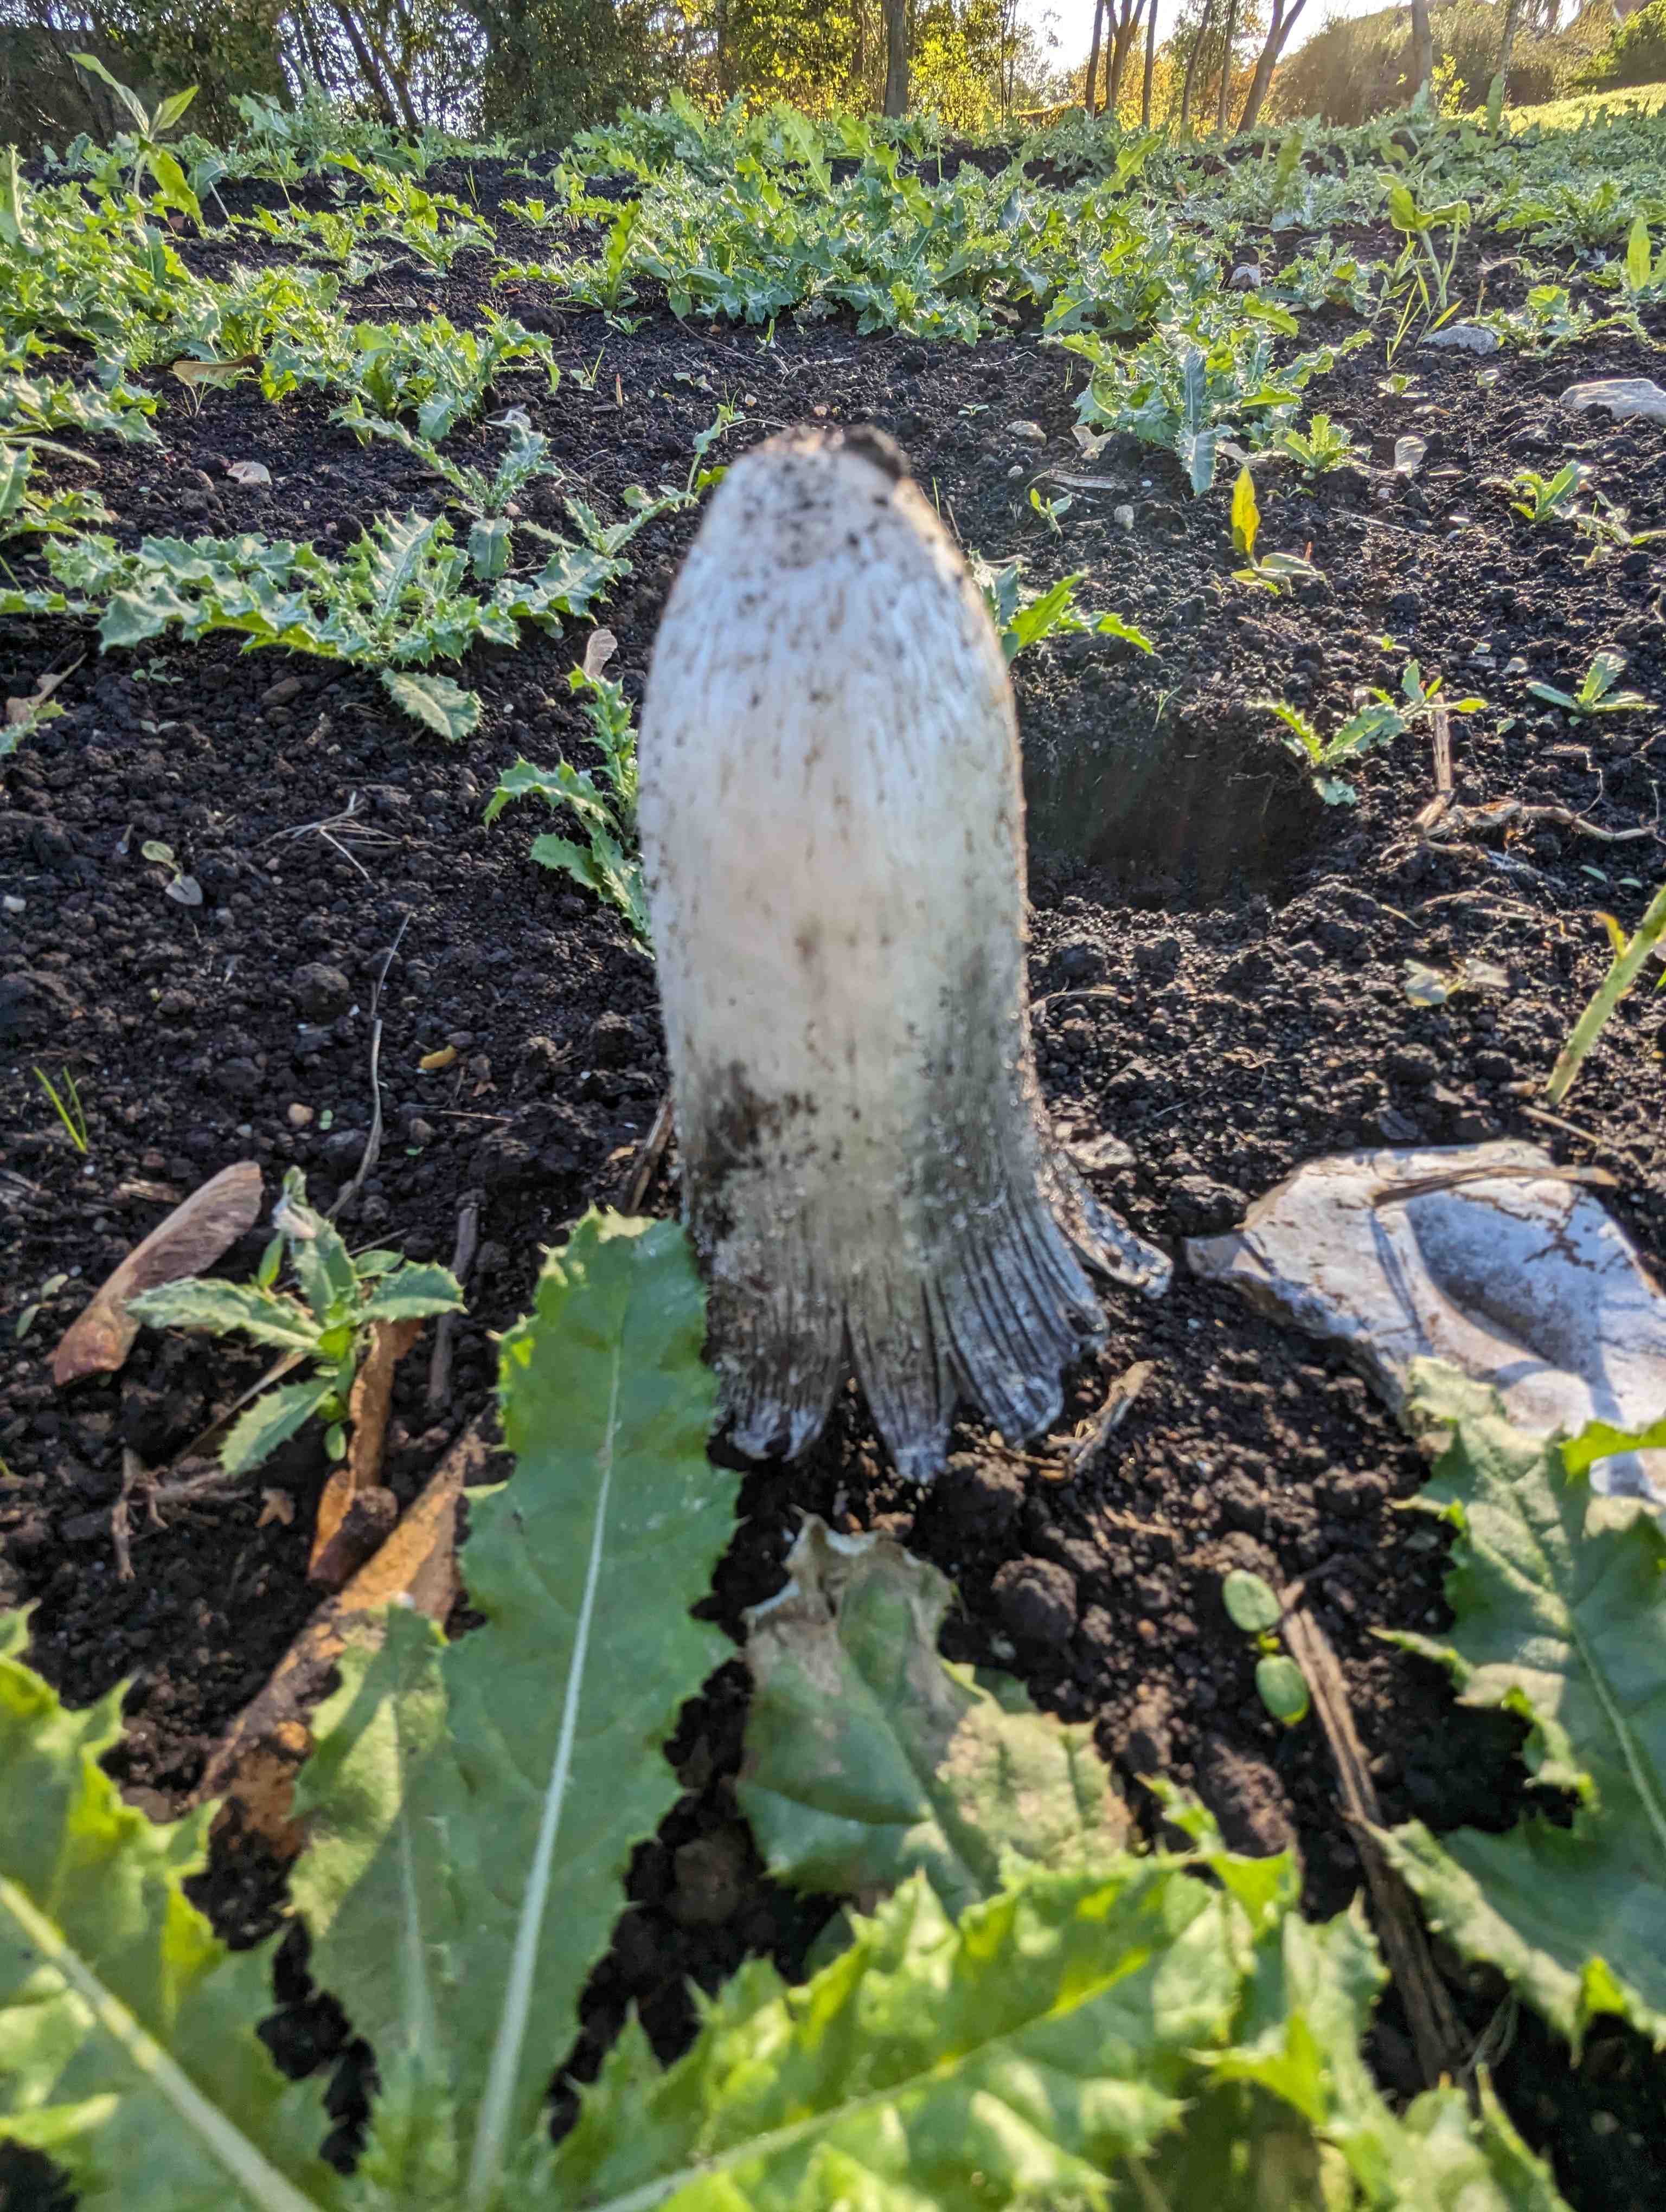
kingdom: Fungi
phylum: Basidiomycota
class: Agaricomycetes
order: Agaricales
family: Agaricaceae
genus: Coprinus
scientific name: Coprinus comatus
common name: stor parykhat
